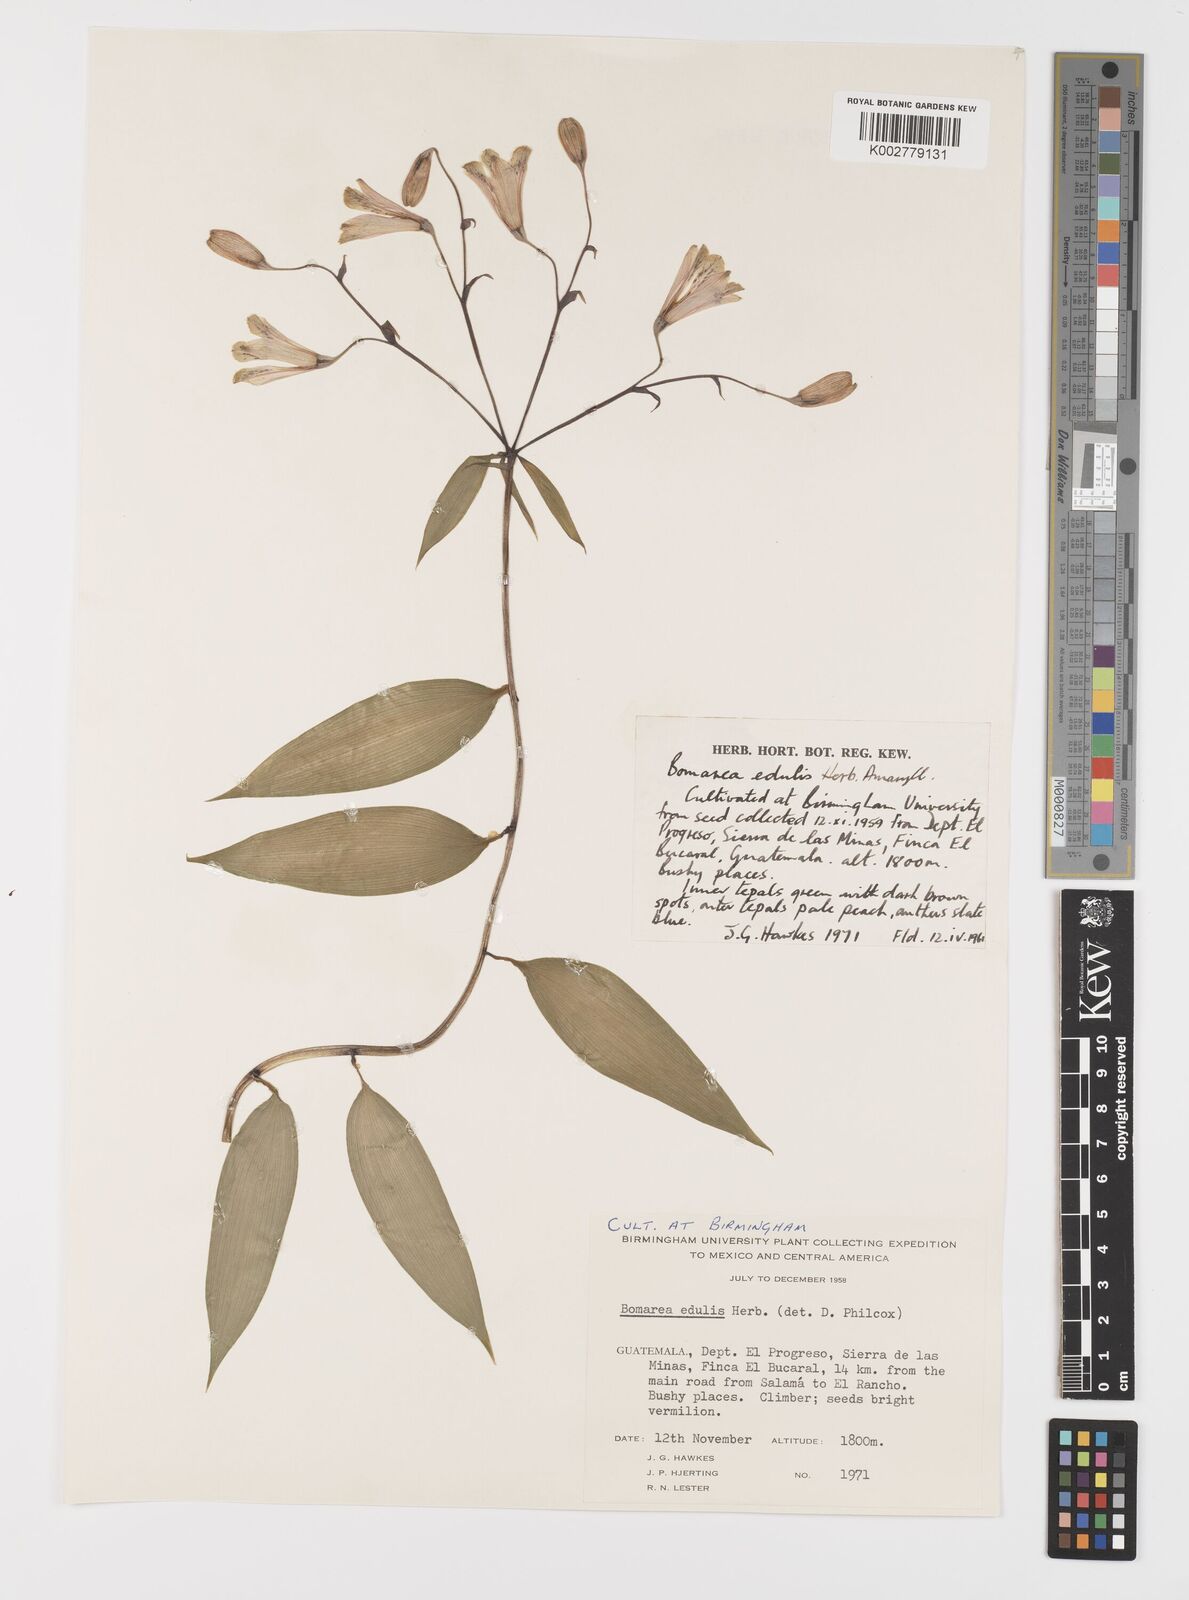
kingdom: Plantae
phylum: Tracheophyta
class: Liliopsida
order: Liliales
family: Alstroemeriaceae
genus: Bomarea
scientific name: Bomarea edulis
